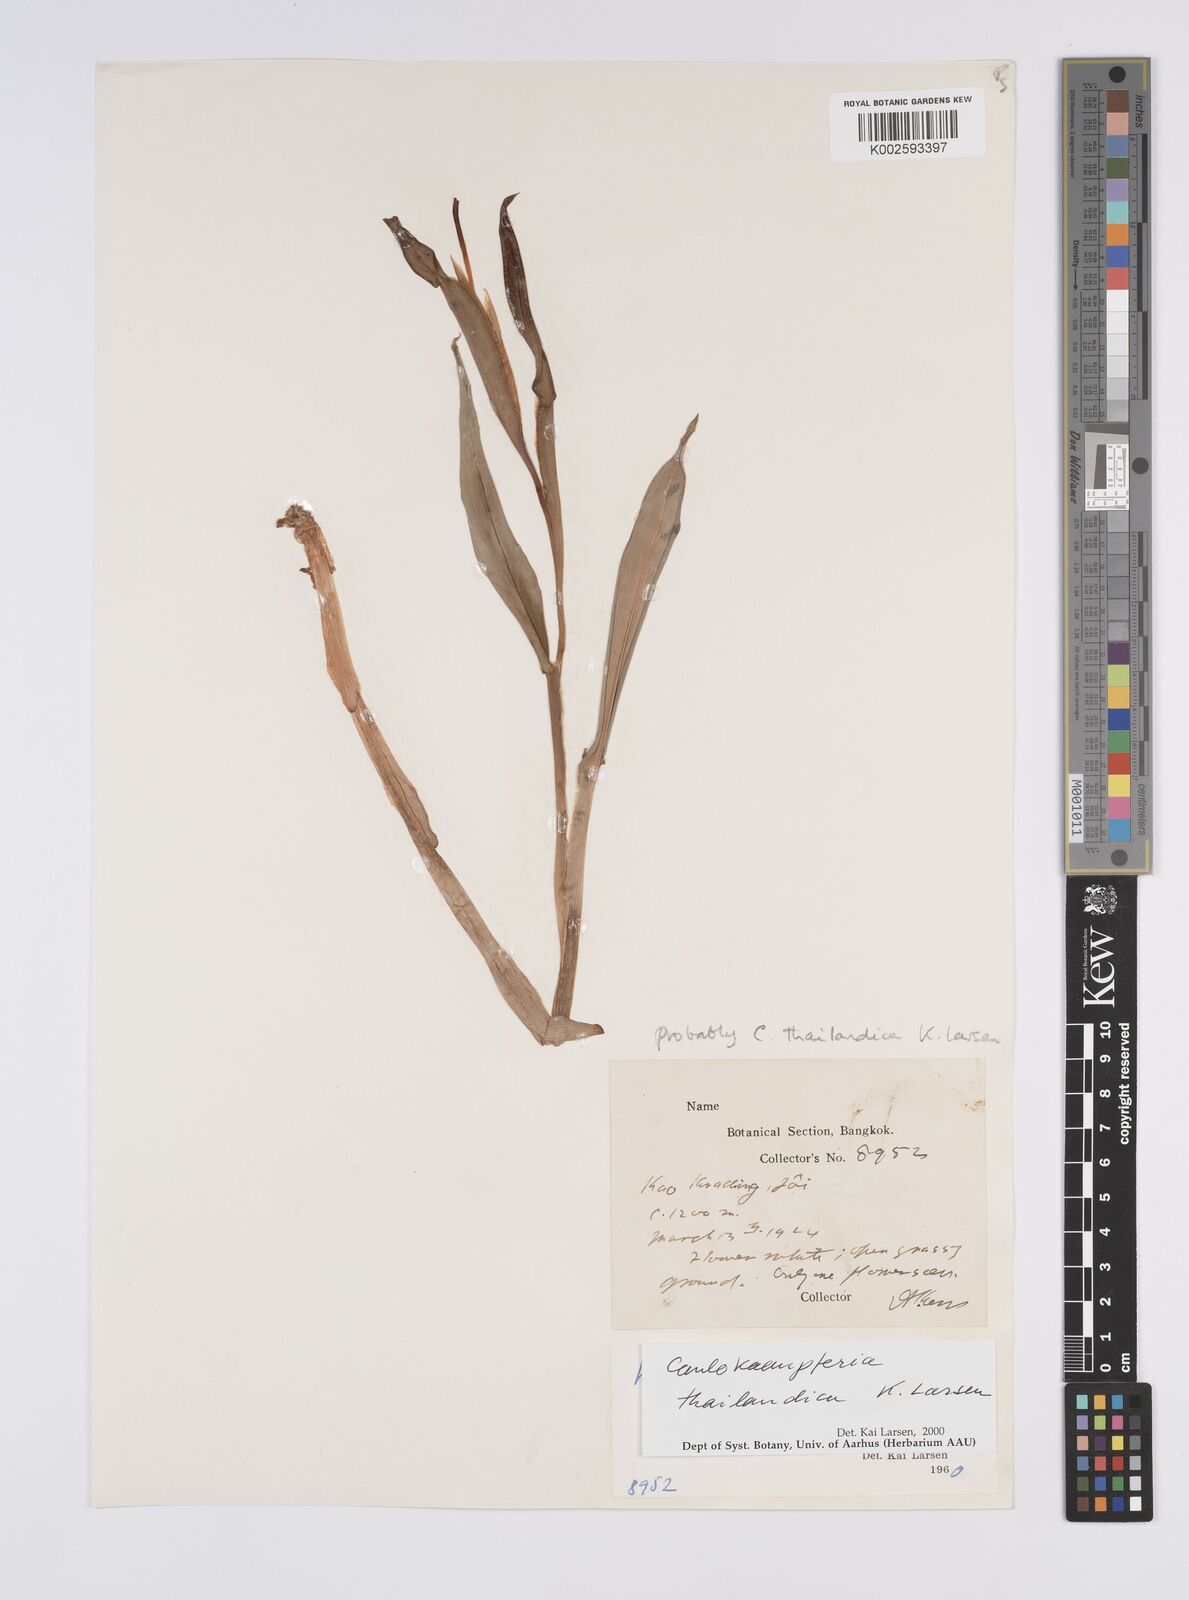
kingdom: Plantae
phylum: Tracheophyta
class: Liliopsida
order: Zingiberales
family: Zingiberaceae
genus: Boesenbergia
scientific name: Boesenbergia thailandica
